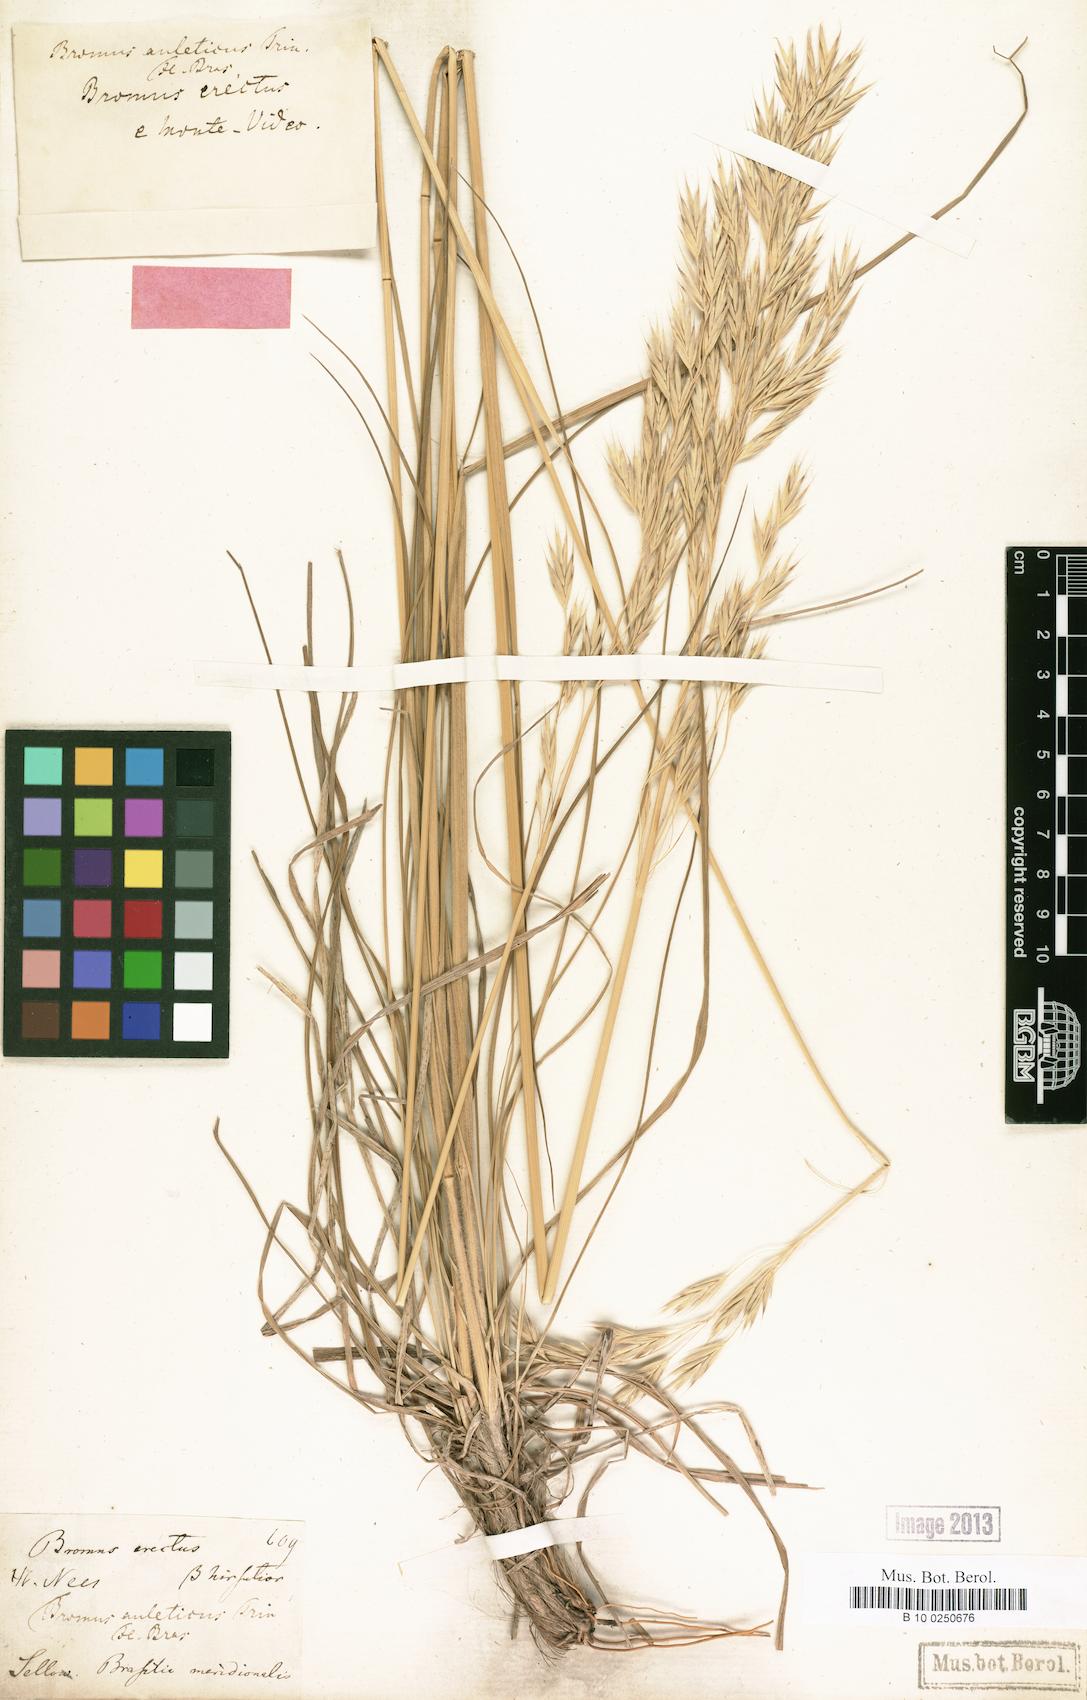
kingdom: Plantae
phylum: Tracheophyta
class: Liliopsida
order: Poales
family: Poaceae
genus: Bromus
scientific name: Bromus auleticus
